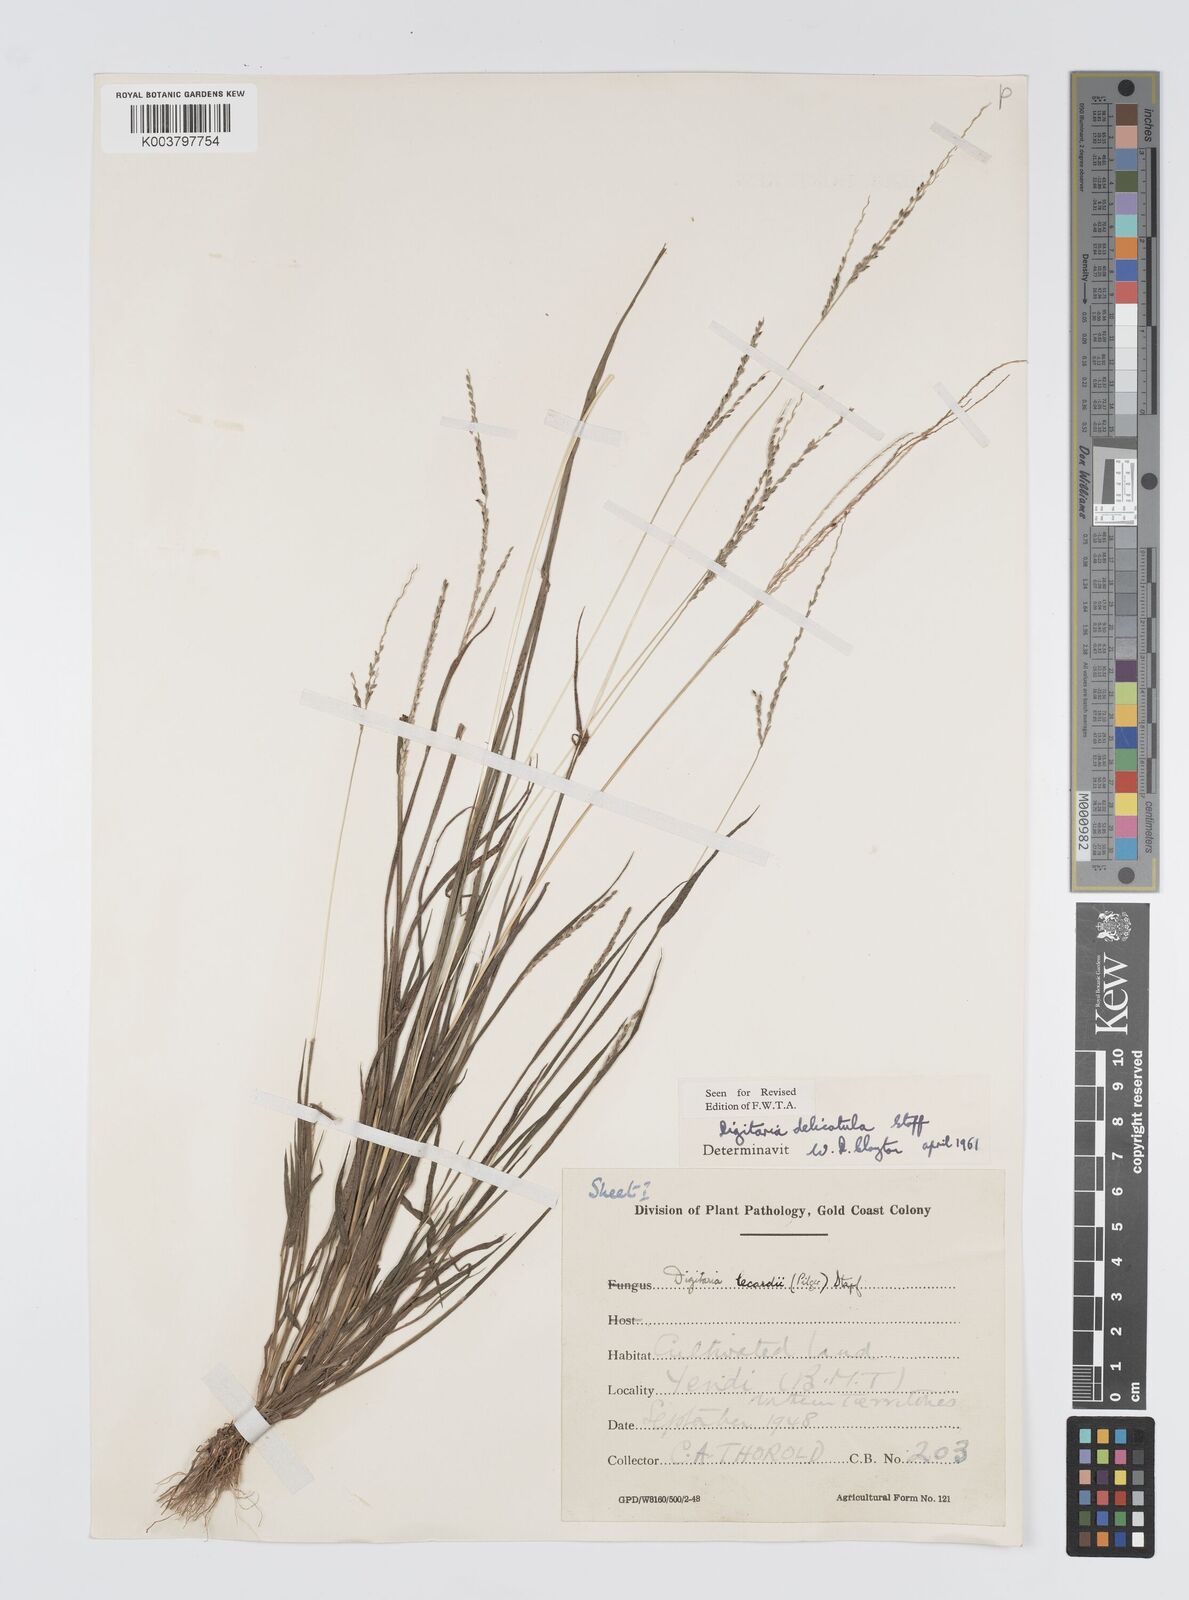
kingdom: Plantae
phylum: Tracheophyta
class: Liliopsida
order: Poales
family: Poaceae
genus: Digitaria
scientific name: Digitaria delicatula
